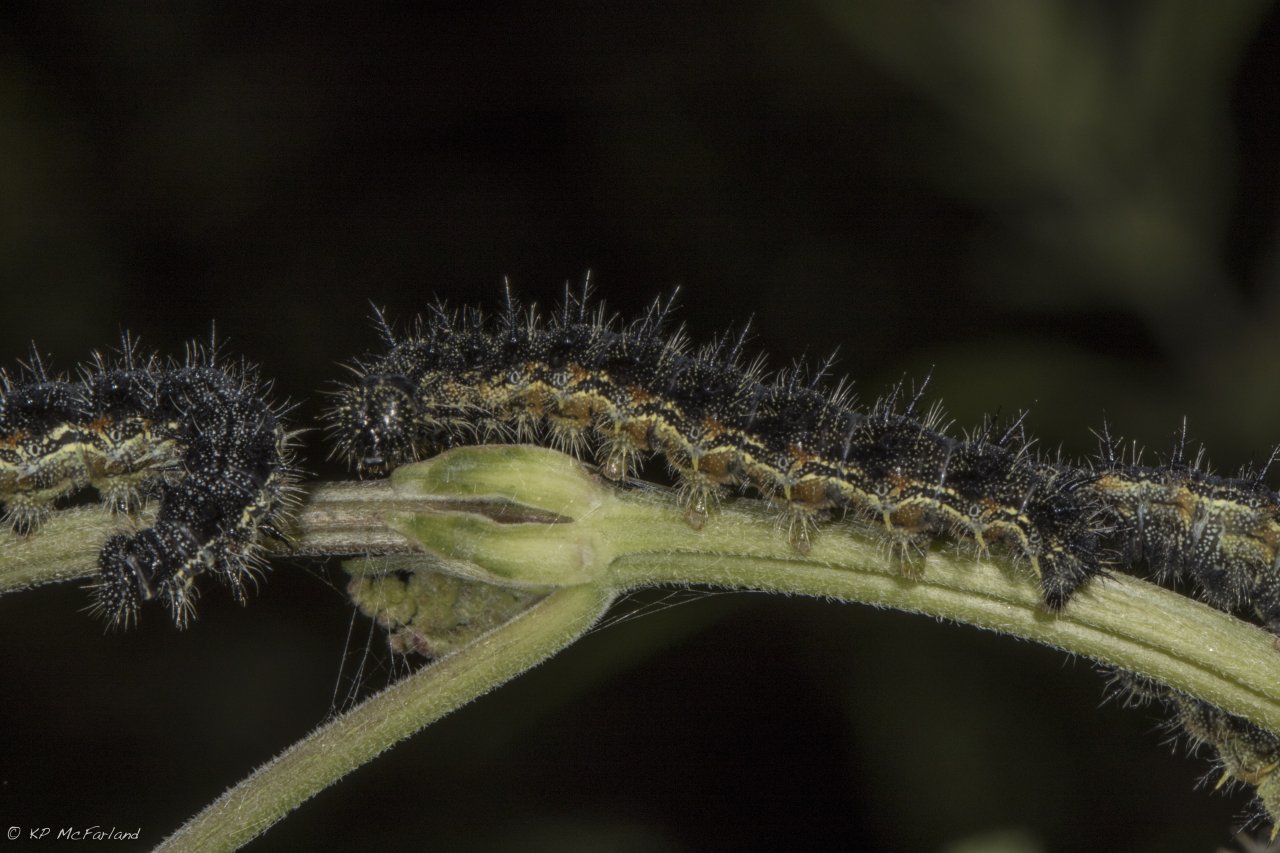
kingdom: Animalia
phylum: Arthropoda
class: Insecta
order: Lepidoptera
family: Nymphalidae
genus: Aglais
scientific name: Aglais milberti
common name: Milbert's Tortoiseshell
